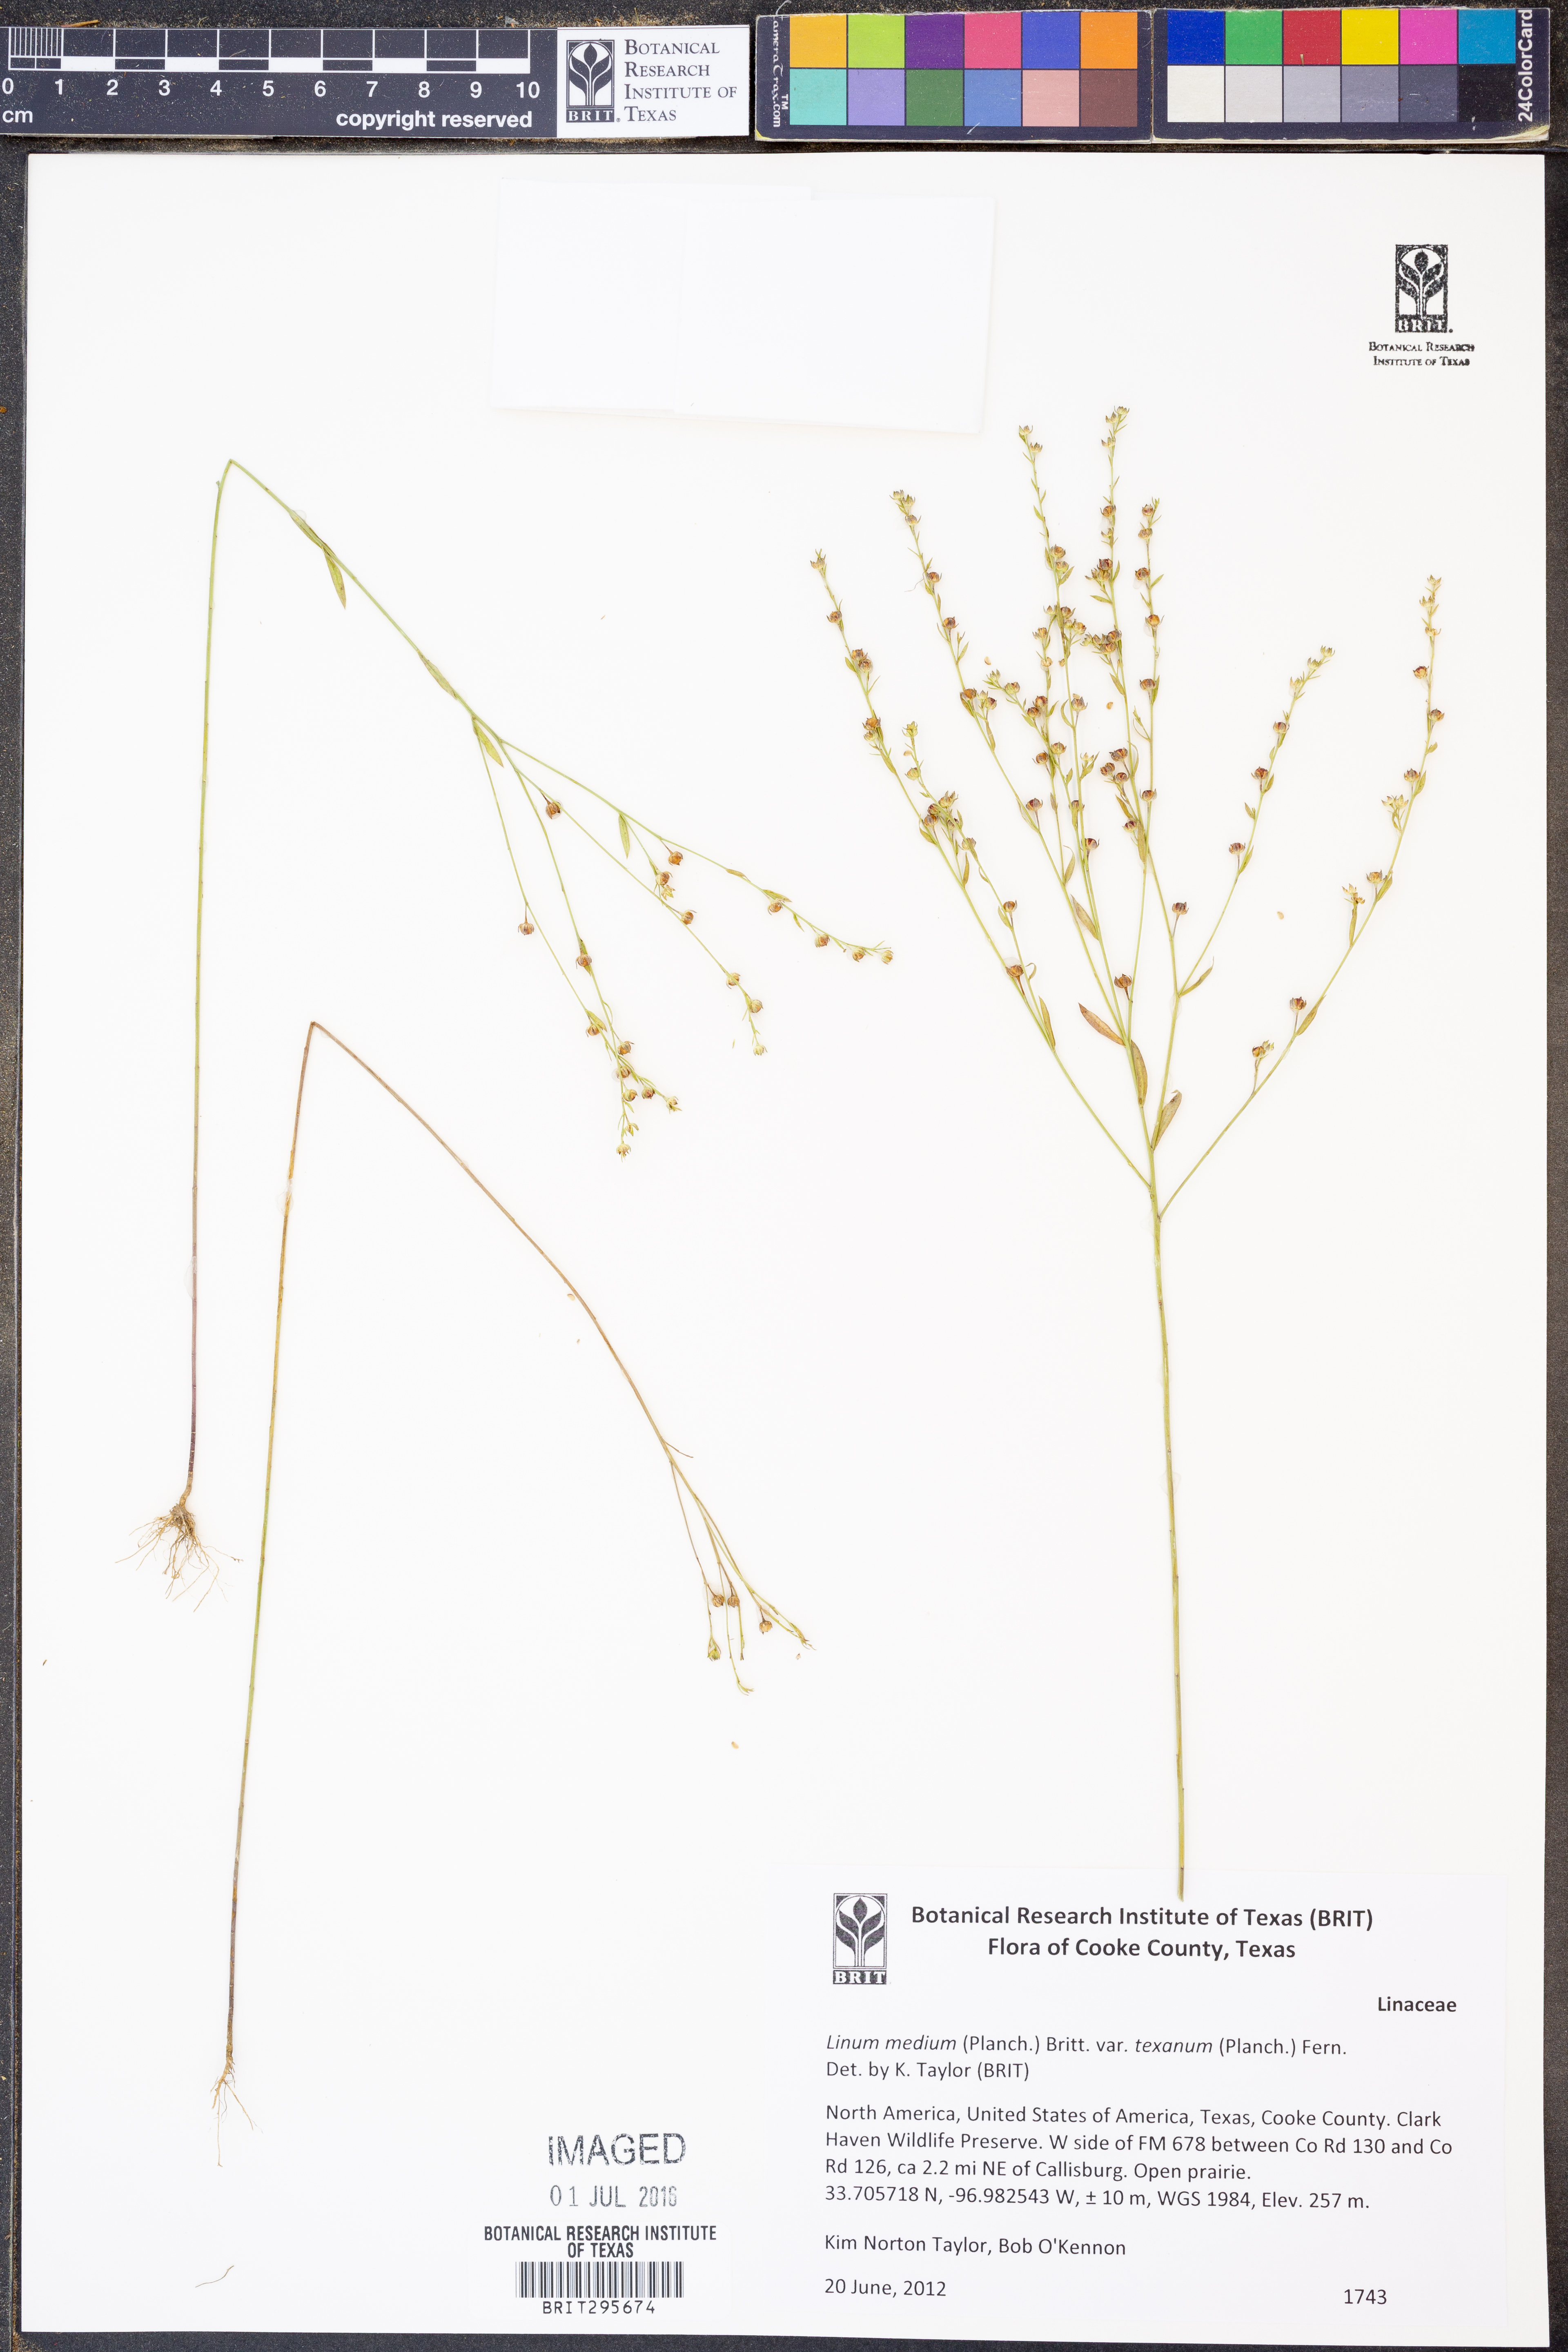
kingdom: Plantae
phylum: Tracheophyta
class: Magnoliopsida
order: Malpighiales
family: Linaceae
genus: Linum
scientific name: Linum medium
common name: Stiff yellow flax
